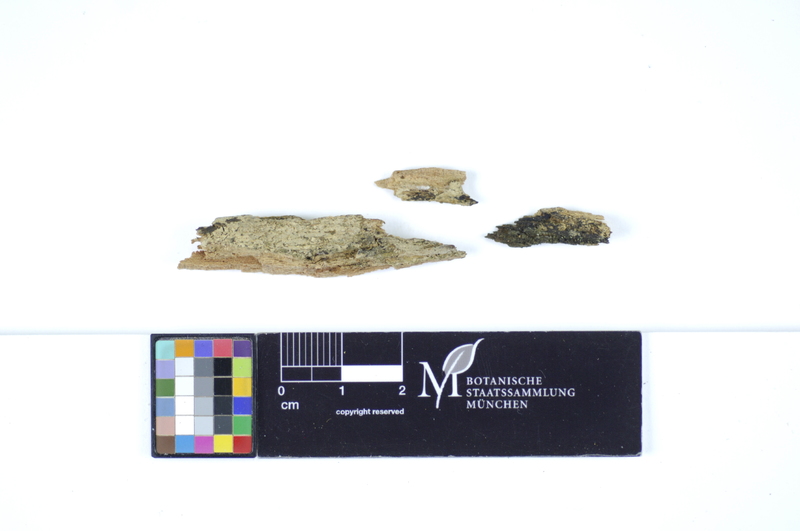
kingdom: Plantae
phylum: Tracheophyta
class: Pinopsida
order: Pinales
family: Pinaceae
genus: Picea
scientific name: Picea
